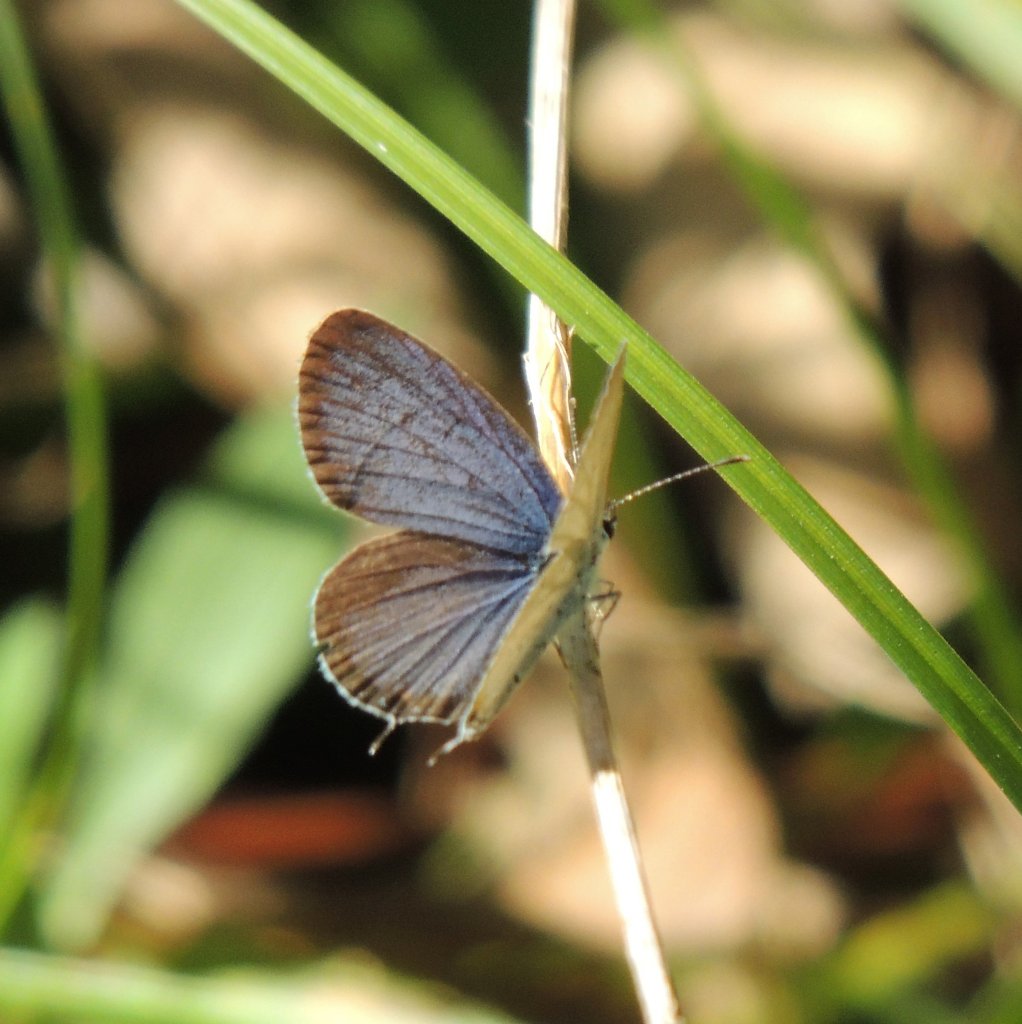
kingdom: Animalia
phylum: Arthropoda
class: Insecta
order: Lepidoptera
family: Lycaenidae
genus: Elkalyce
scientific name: Elkalyce comyntas
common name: Eastern Tailed-Blue
